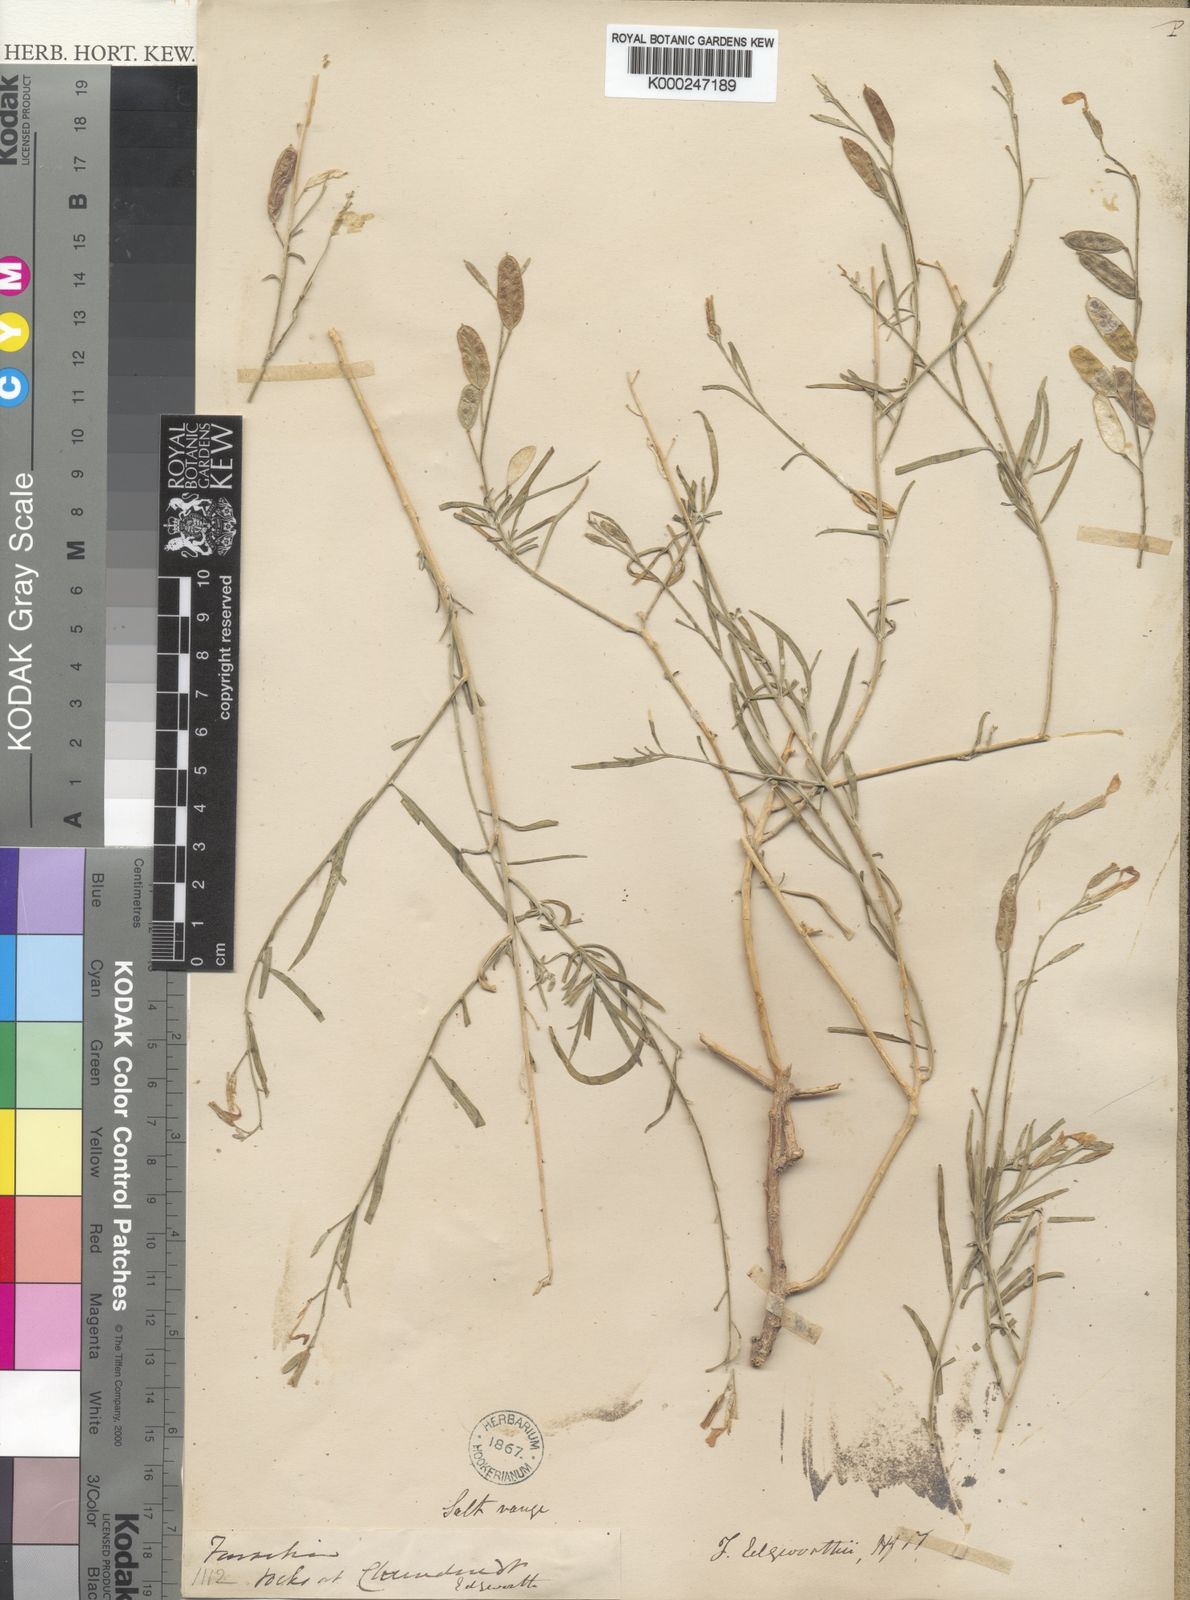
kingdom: Plantae
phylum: Tracheophyta
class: Magnoliopsida
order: Brassicales
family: Brassicaceae
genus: Farsetia
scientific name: Farsetia jacquemontii
